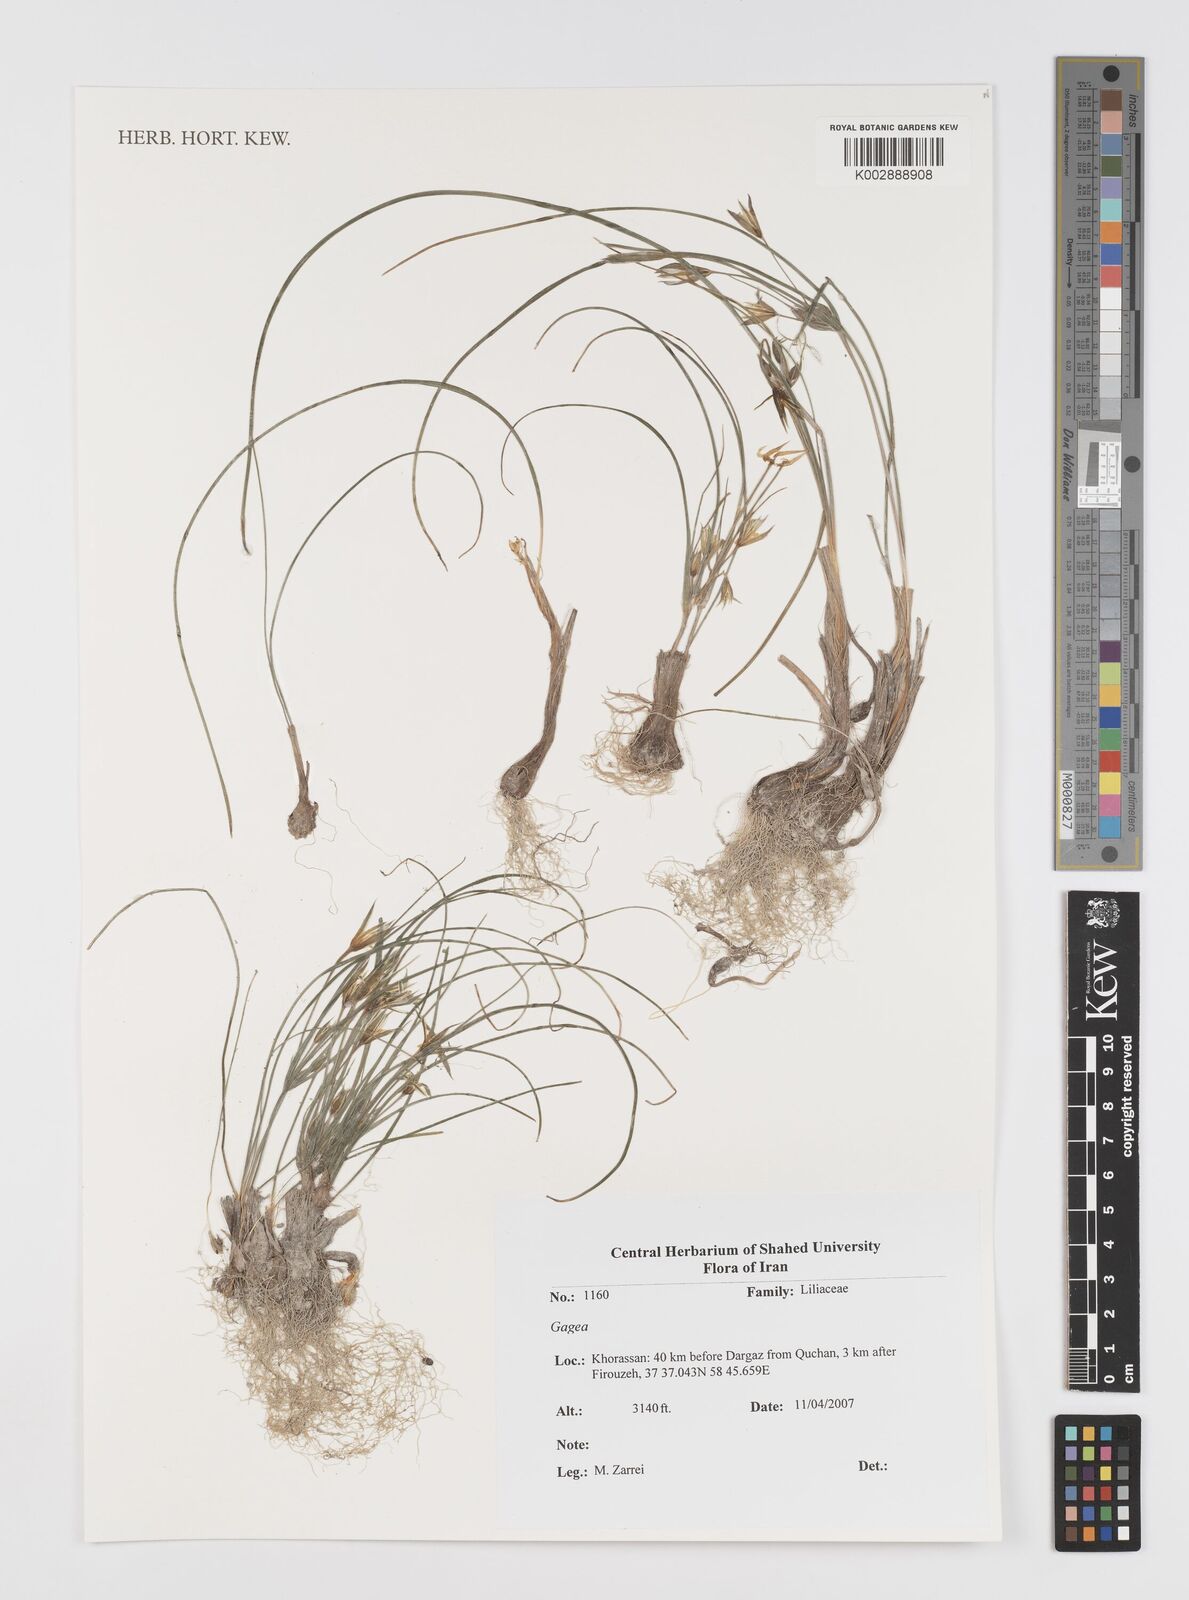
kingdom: Plantae
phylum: Tracheophyta
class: Liliopsida
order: Liliales
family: Liliaceae
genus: Gagea
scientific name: Gagea
